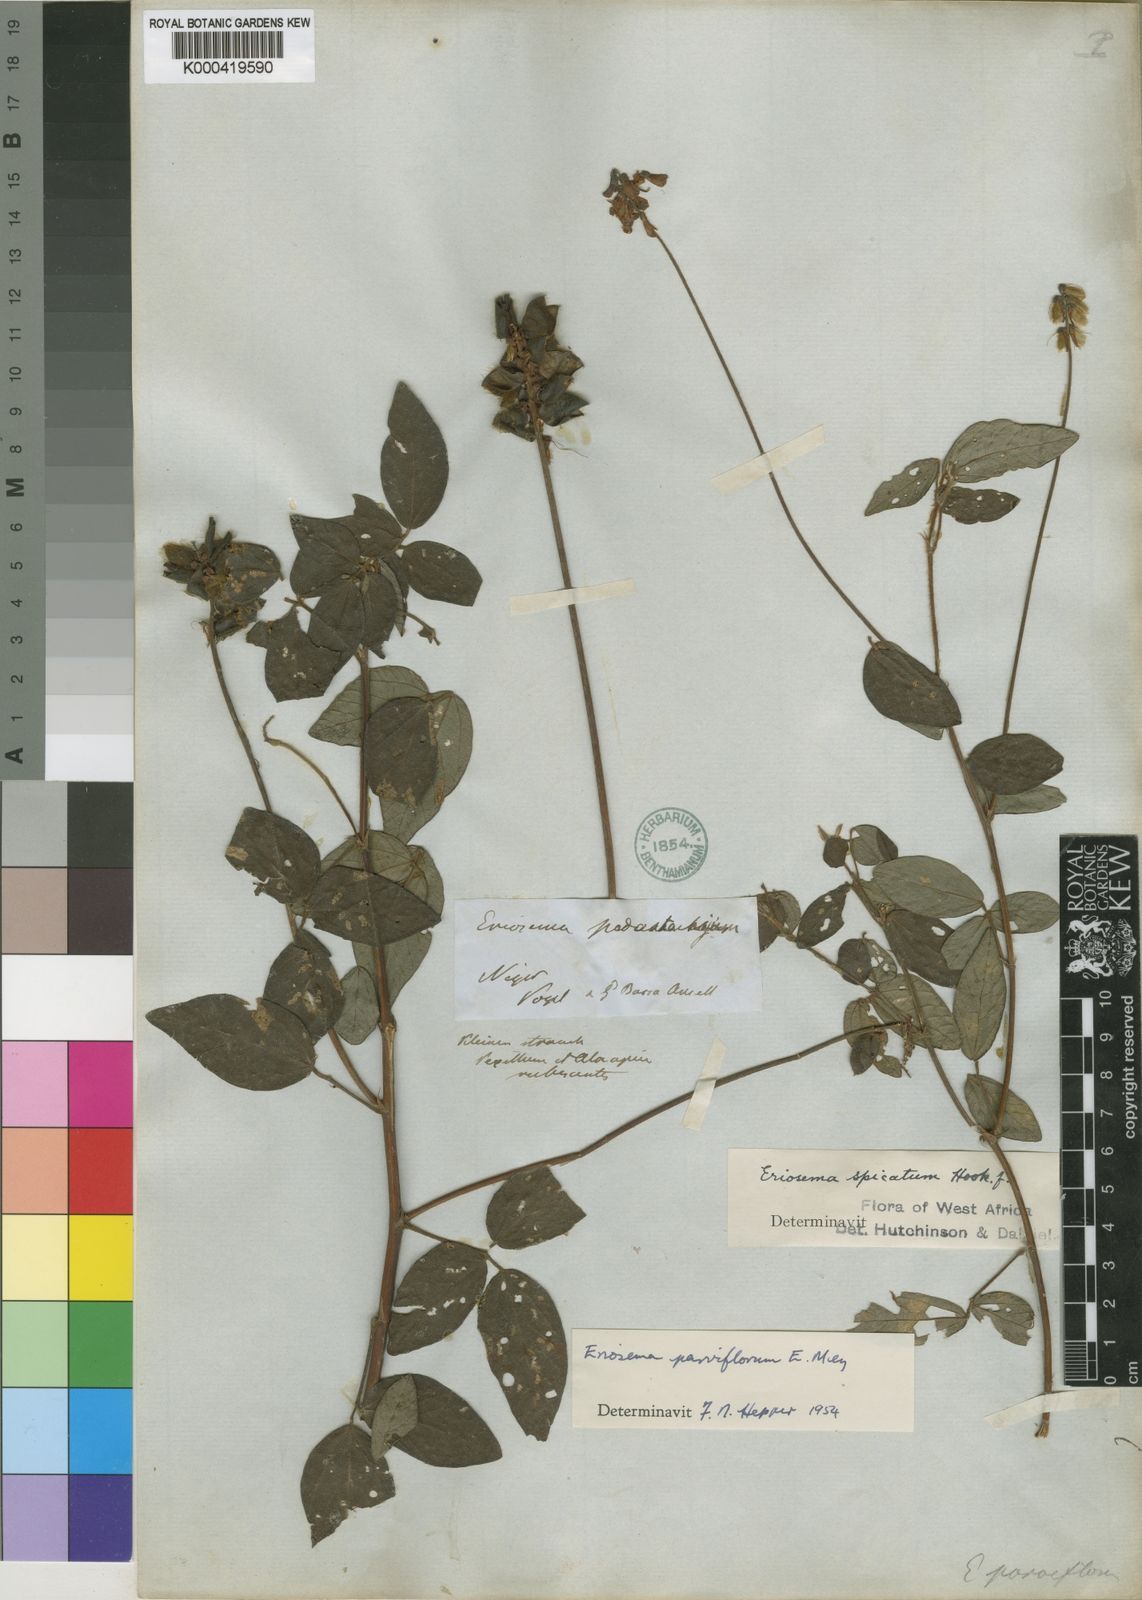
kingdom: Plantae
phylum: Tracheophyta
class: Magnoliopsida
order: Fabales
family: Fabaceae
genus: Eriosema
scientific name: Eriosema parviflorum
